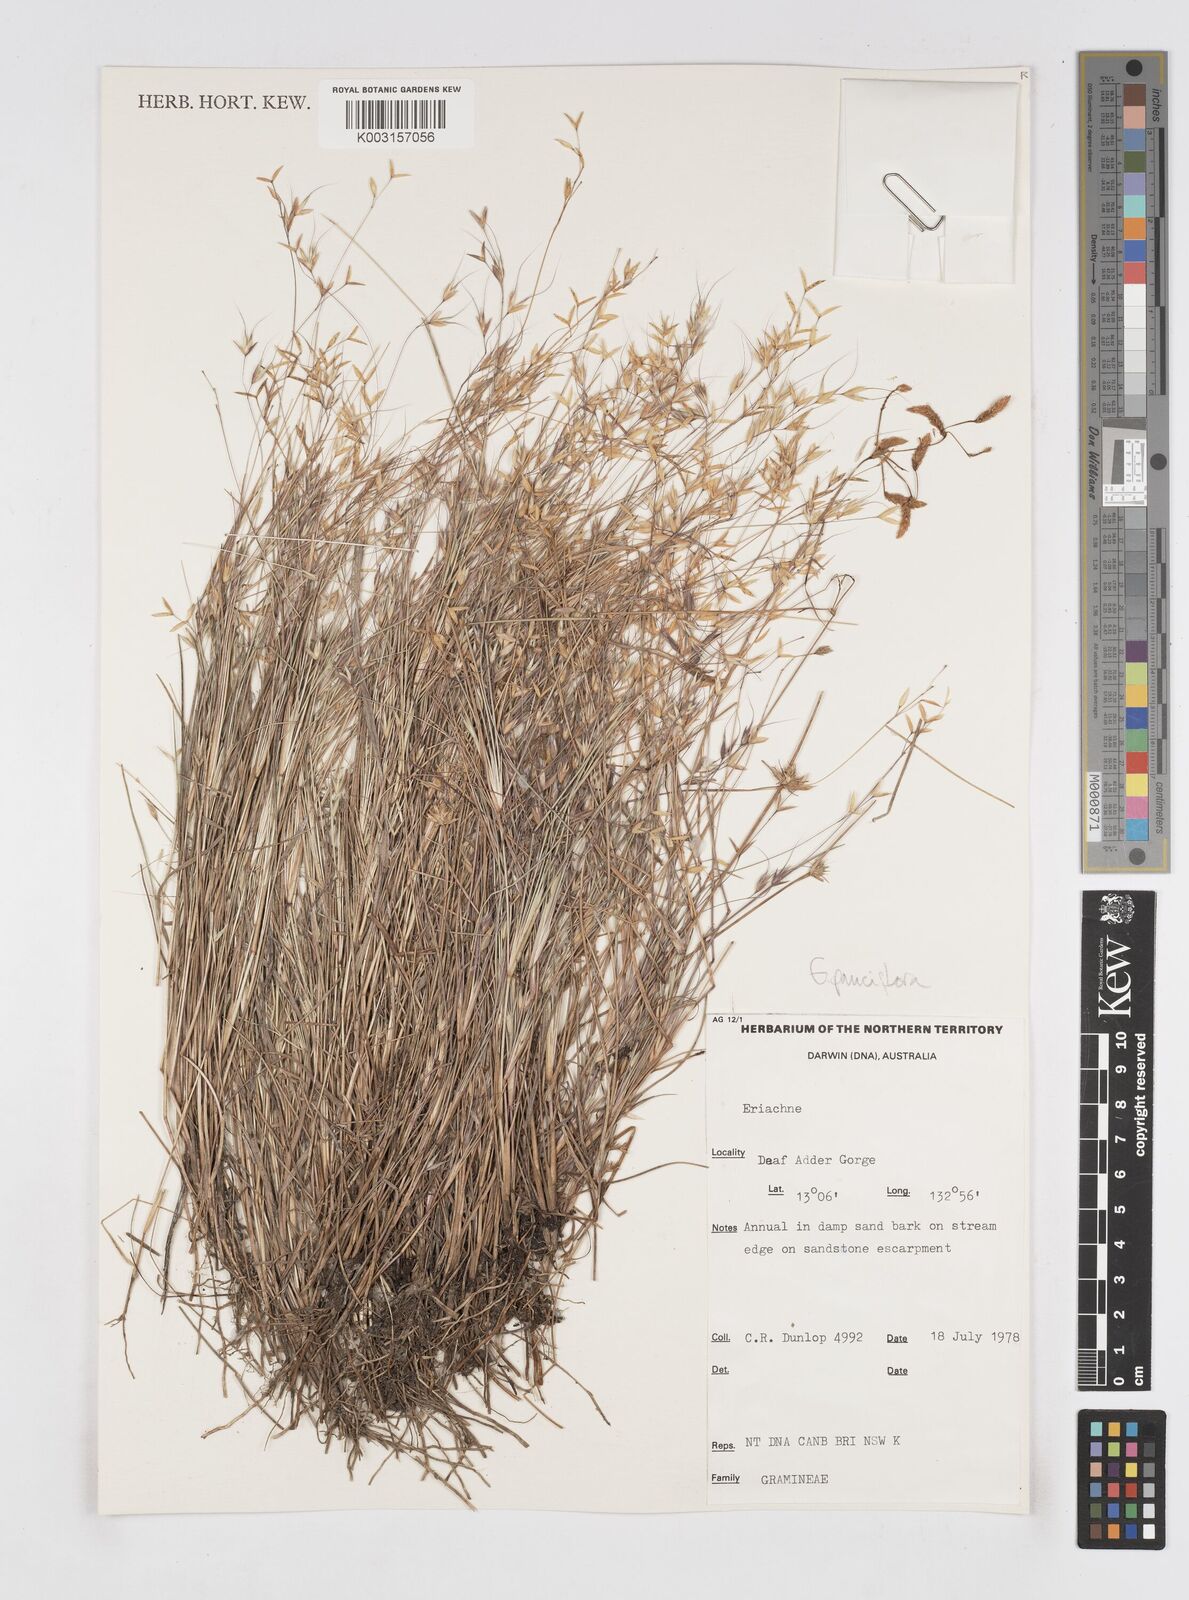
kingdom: Plantae
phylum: Tracheophyta
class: Liliopsida
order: Poales
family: Poaceae
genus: Eriachne
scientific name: Eriachne pauciflora
